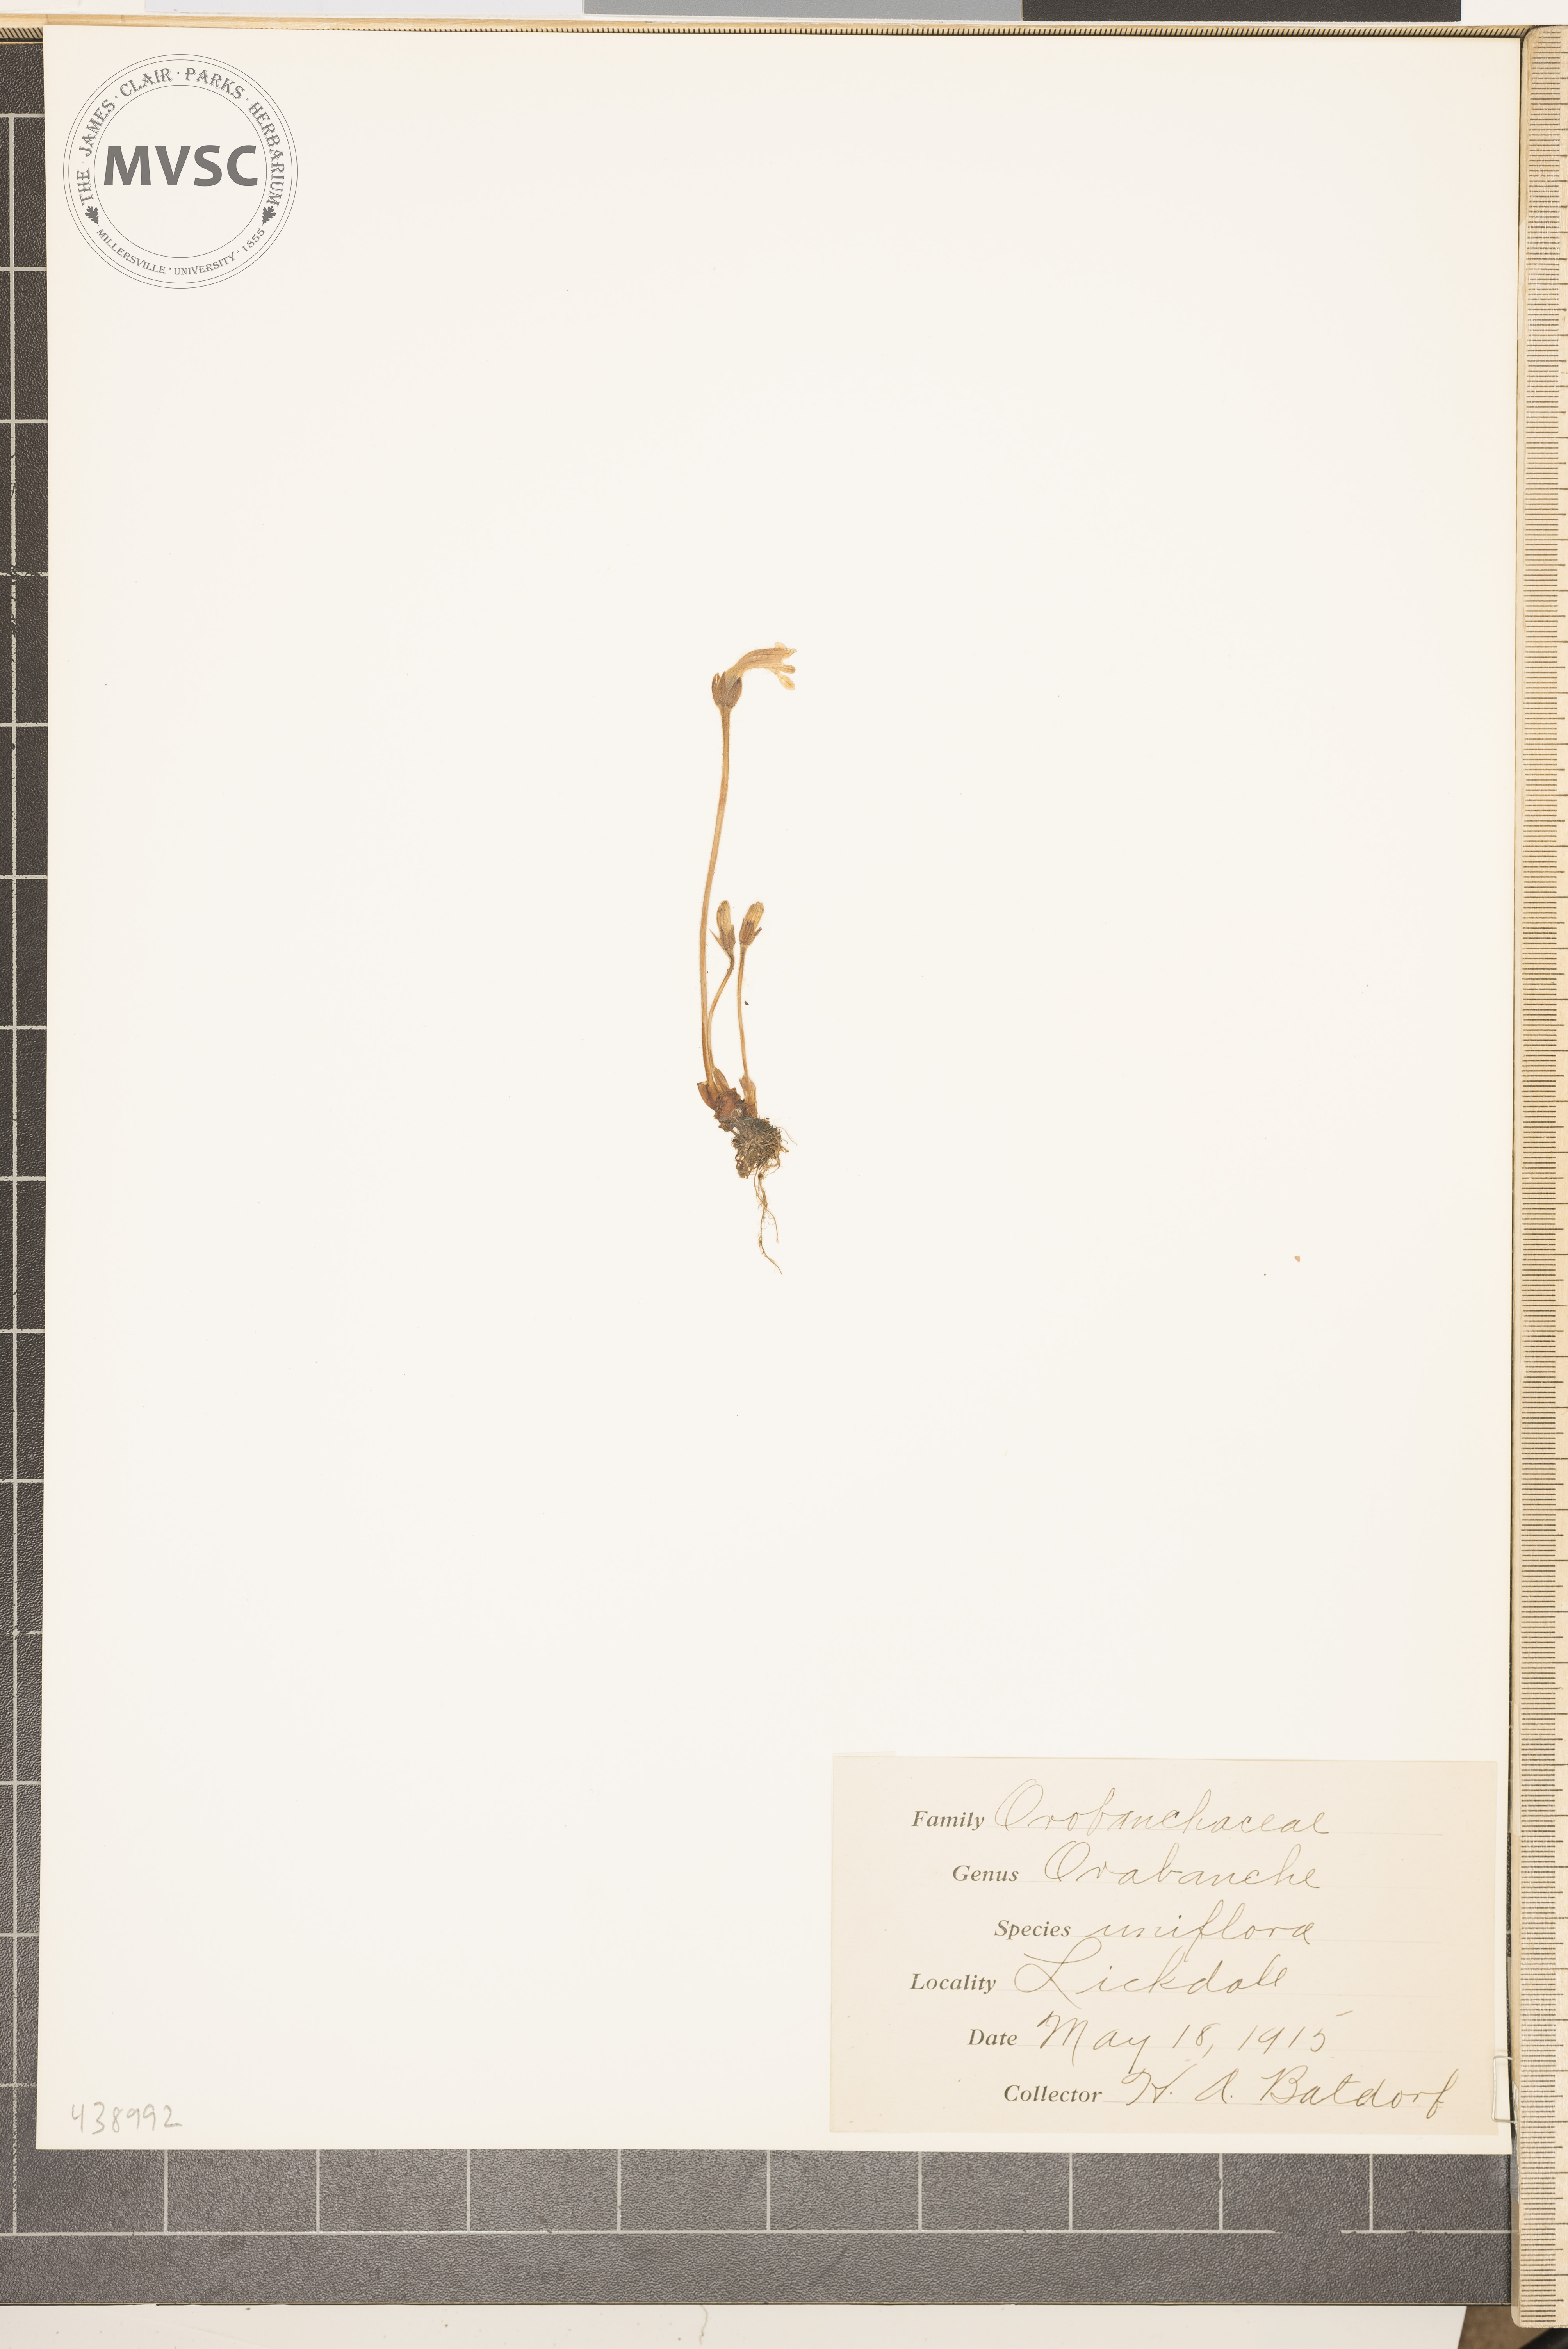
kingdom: Plantae
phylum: Tracheophyta
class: Magnoliopsida
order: Lamiales
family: Orobanchaceae
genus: Aphyllon
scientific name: Aphyllon uniflorum
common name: One-flowered broomrape
